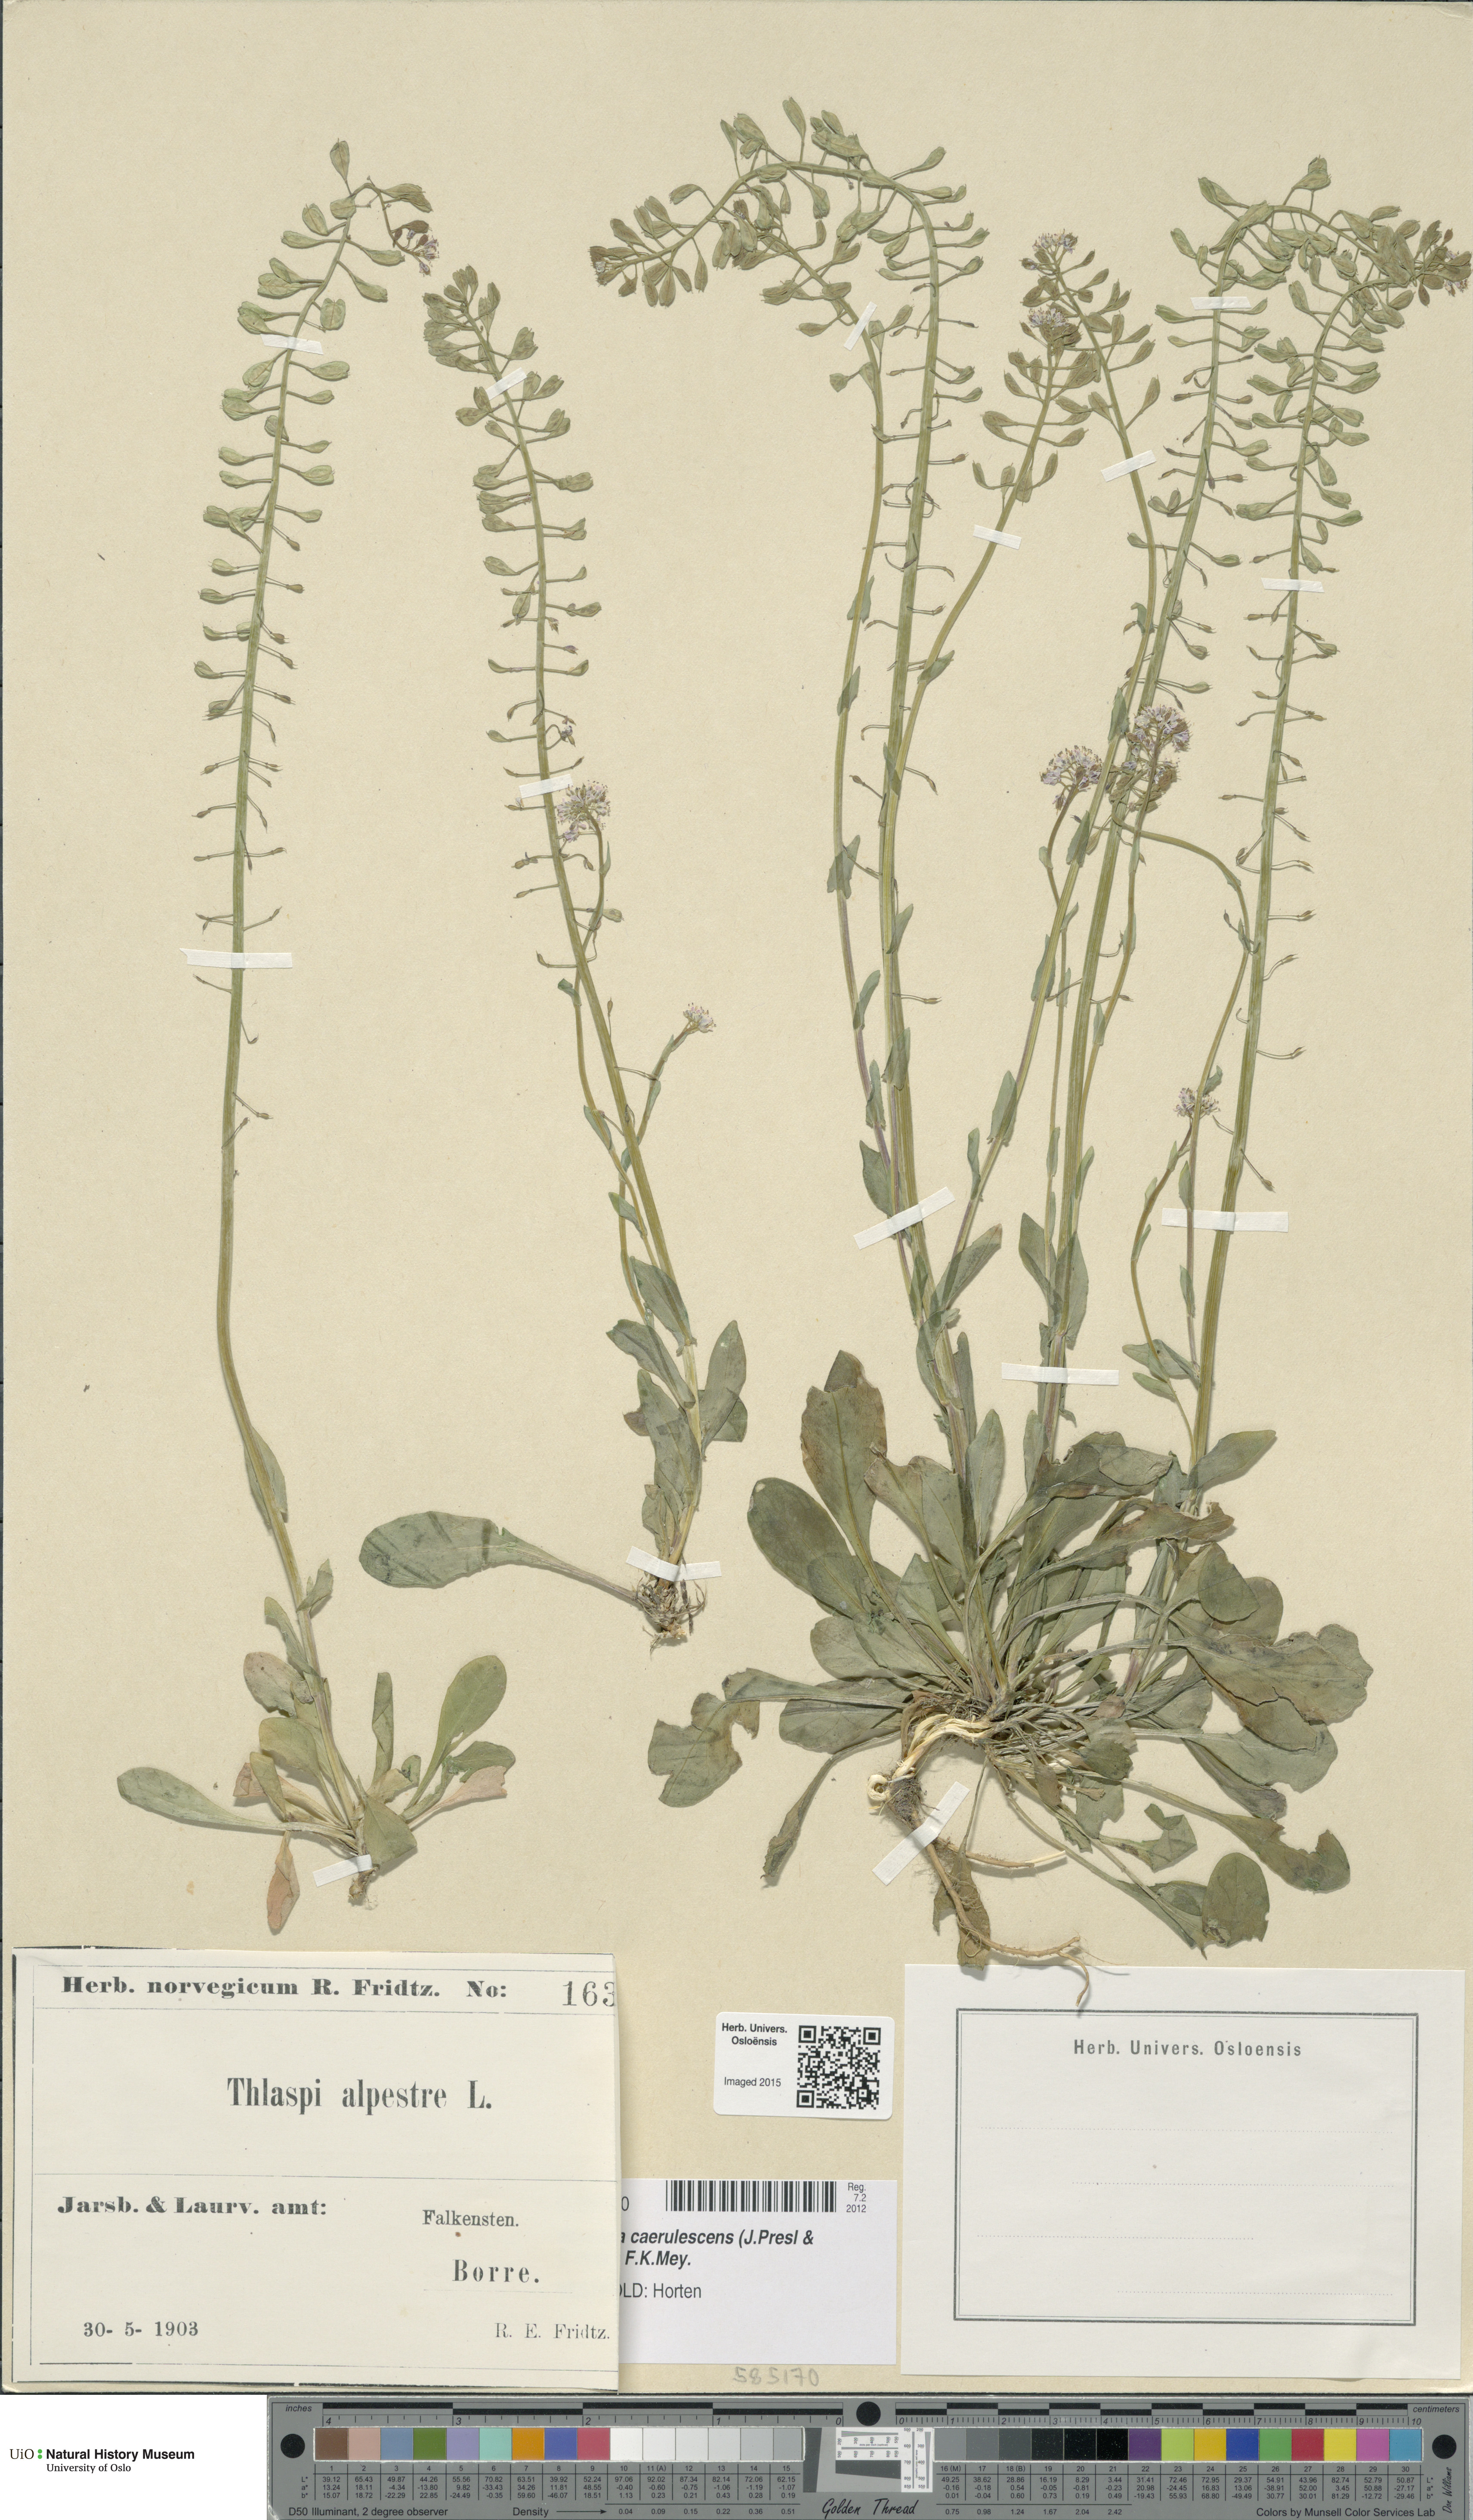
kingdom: Plantae
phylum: Tracheophyta
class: Magnoliopsida
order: Brassicales
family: Brassicaceae
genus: Noccaea
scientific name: Noccaea caerulescens
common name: Alpine pennycress
